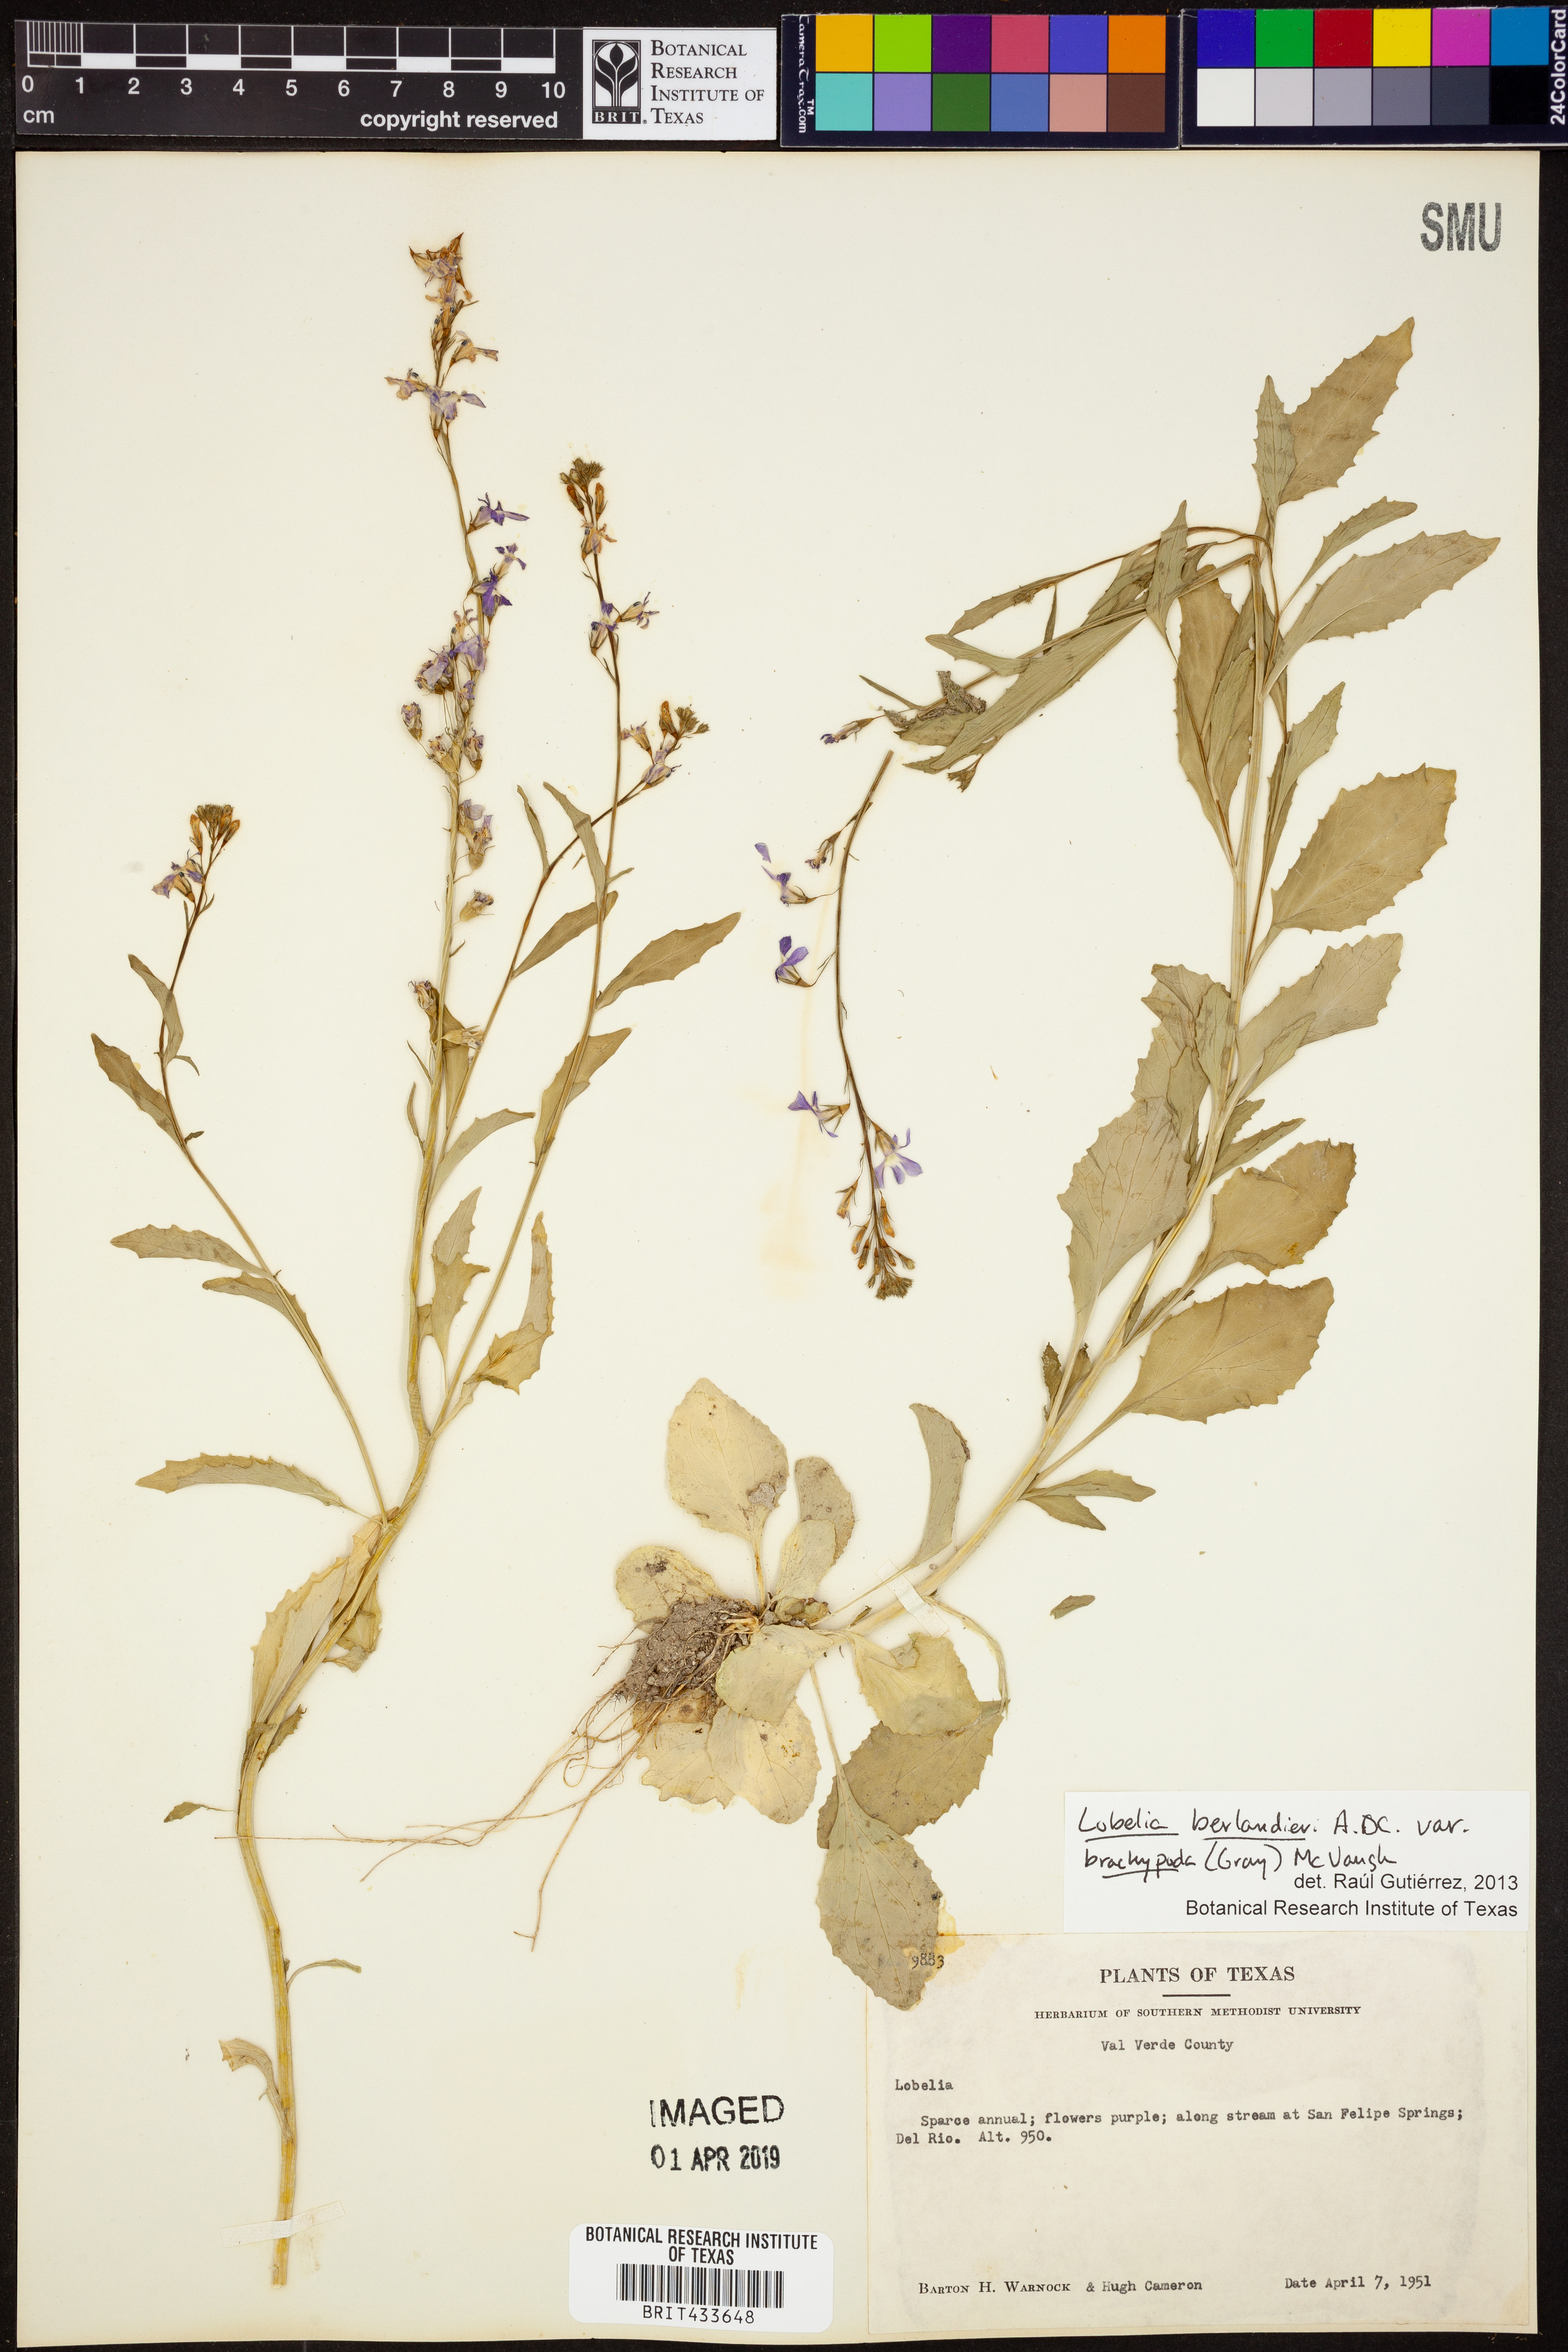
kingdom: Plantae
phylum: Tracheophyta
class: Magnoliopsida
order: Asterales
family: Campanulaceae
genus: Lobelia
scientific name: Lobelia berlandieri
